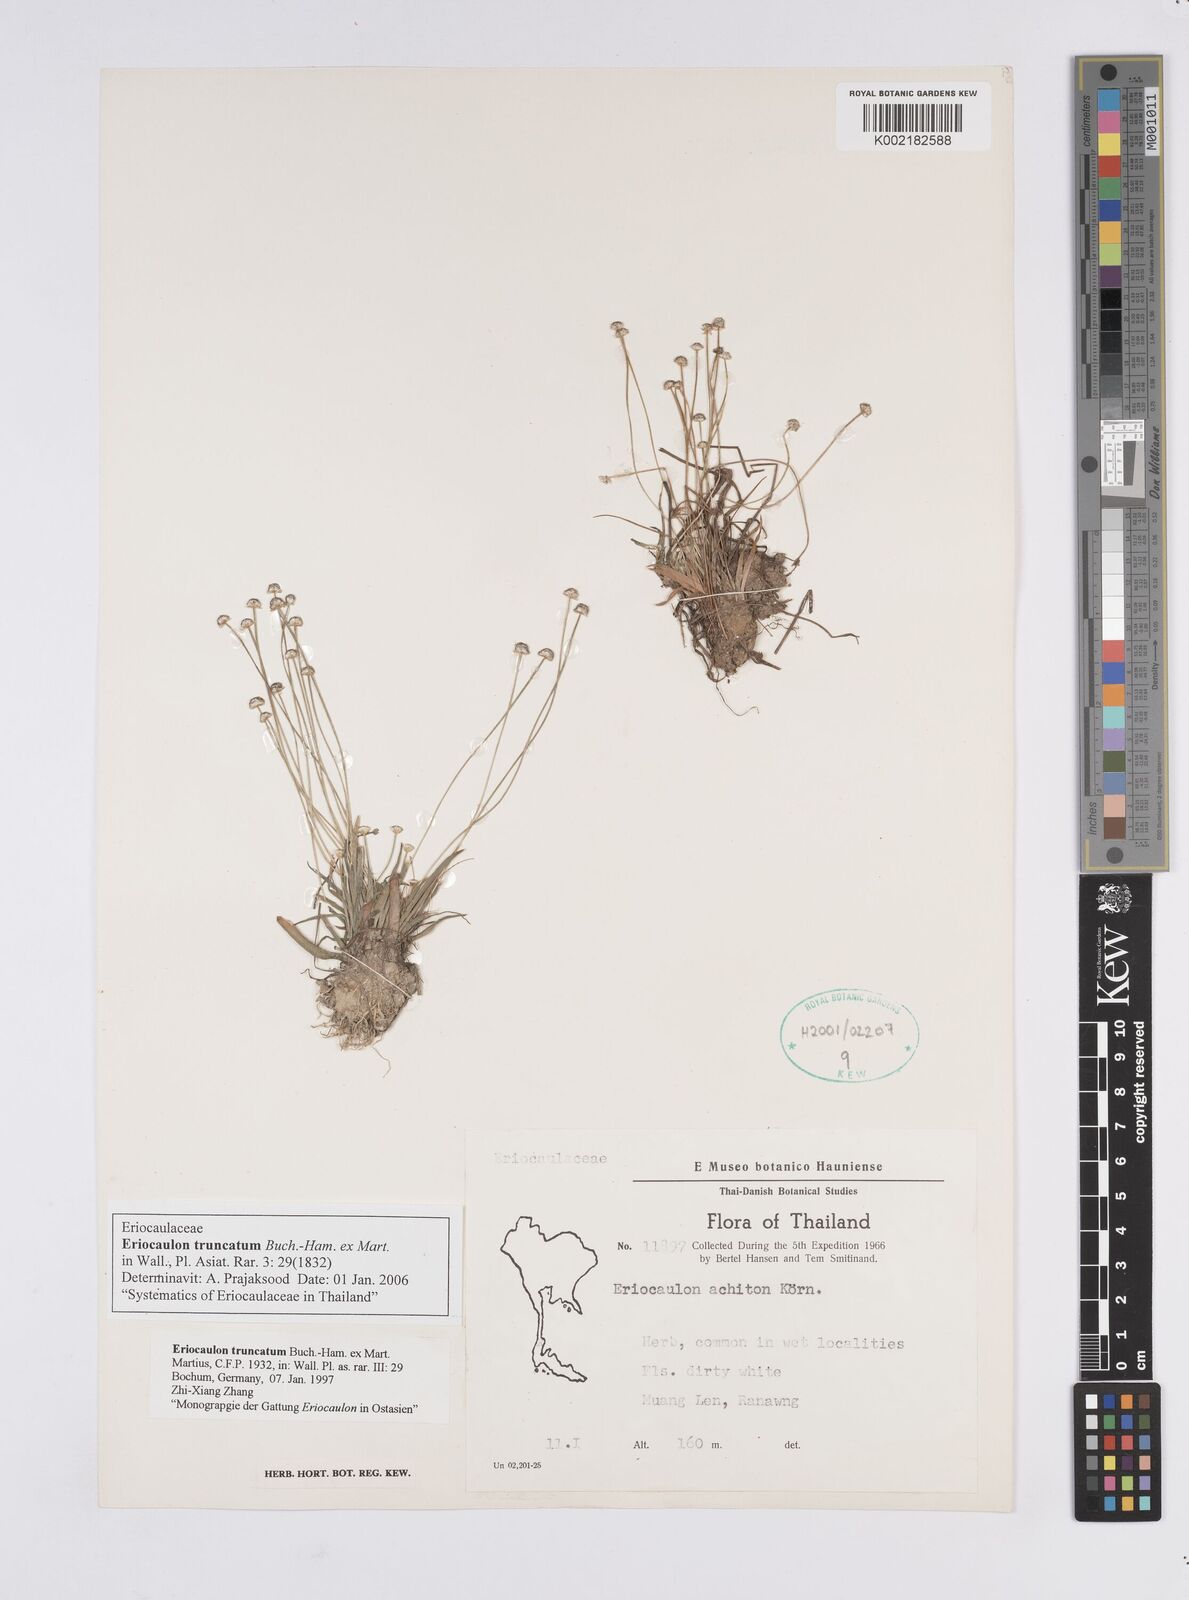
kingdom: Plantae
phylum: Tracheophyta
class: Liliopsida
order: Poales
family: Eriocaulaceae
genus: Eriocaulon
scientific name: Eriocaulon truncatum
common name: Short pipe-wort
